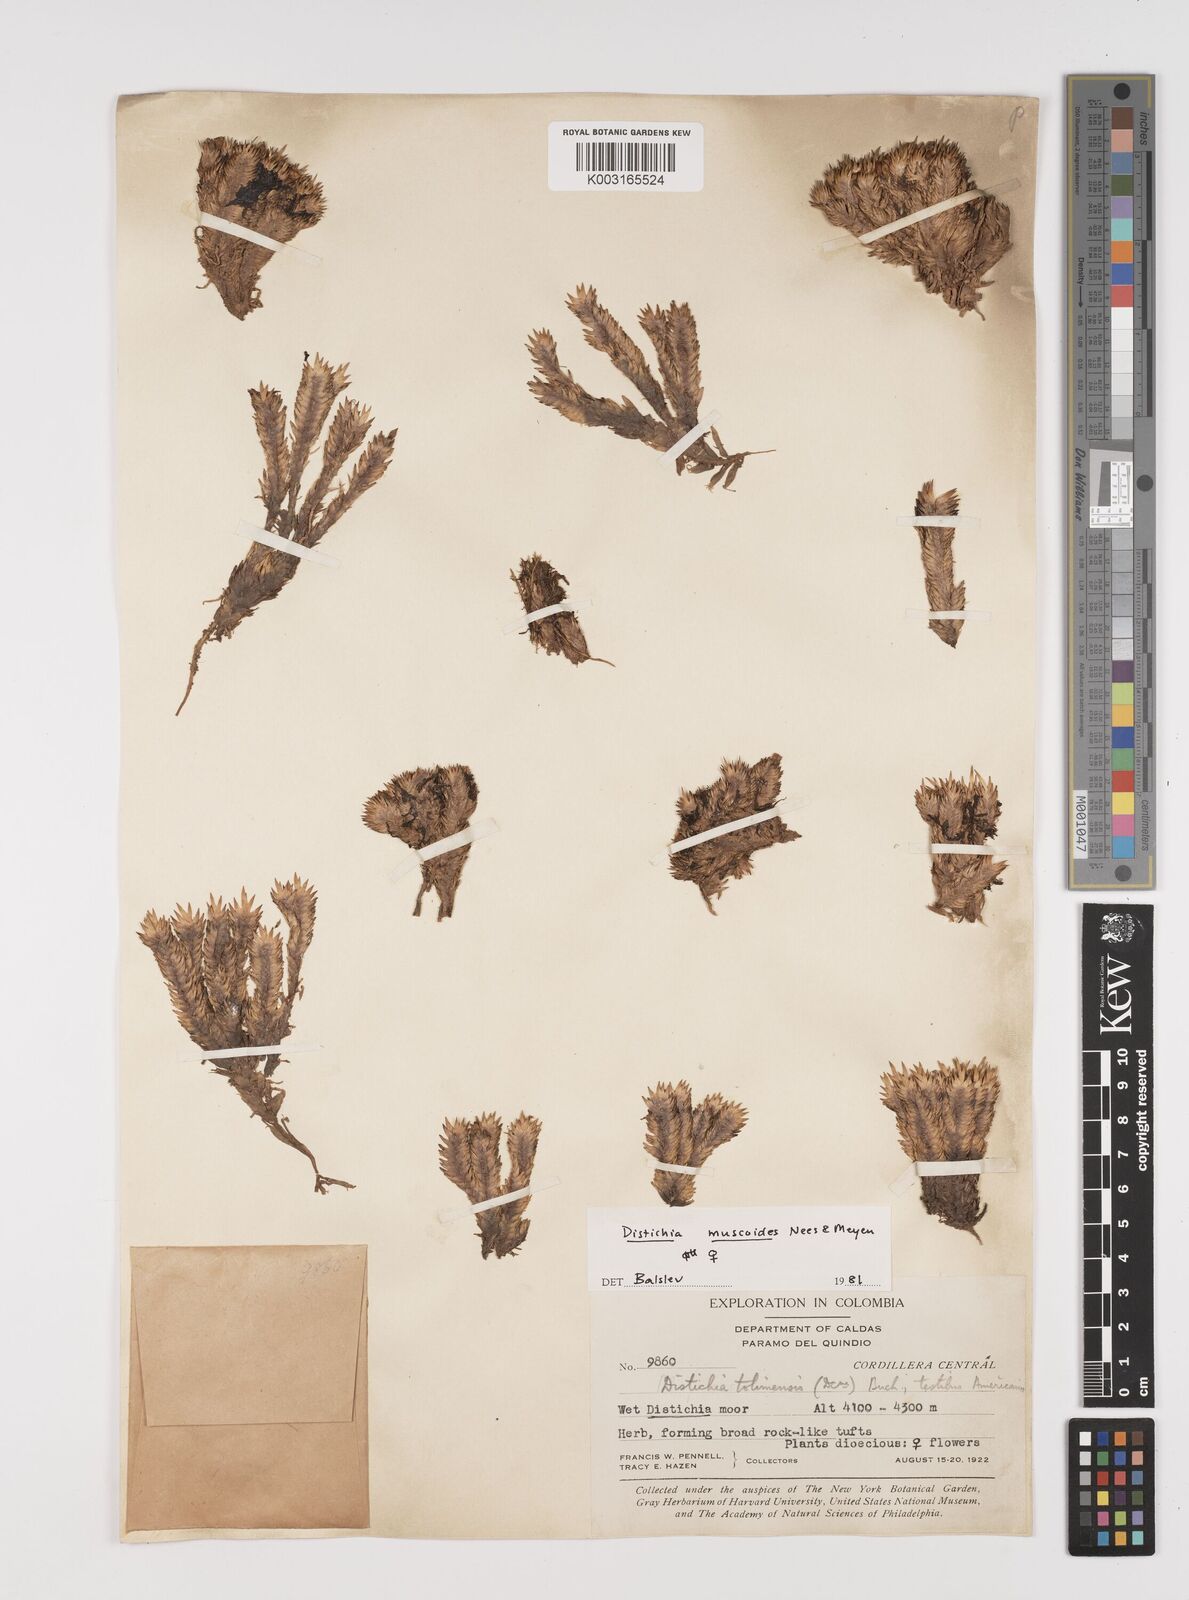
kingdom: Plantae
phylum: Tracheophyta
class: Liliopsida
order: Poales
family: Juncaceae
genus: Distichia
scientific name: Distichia muscoides
